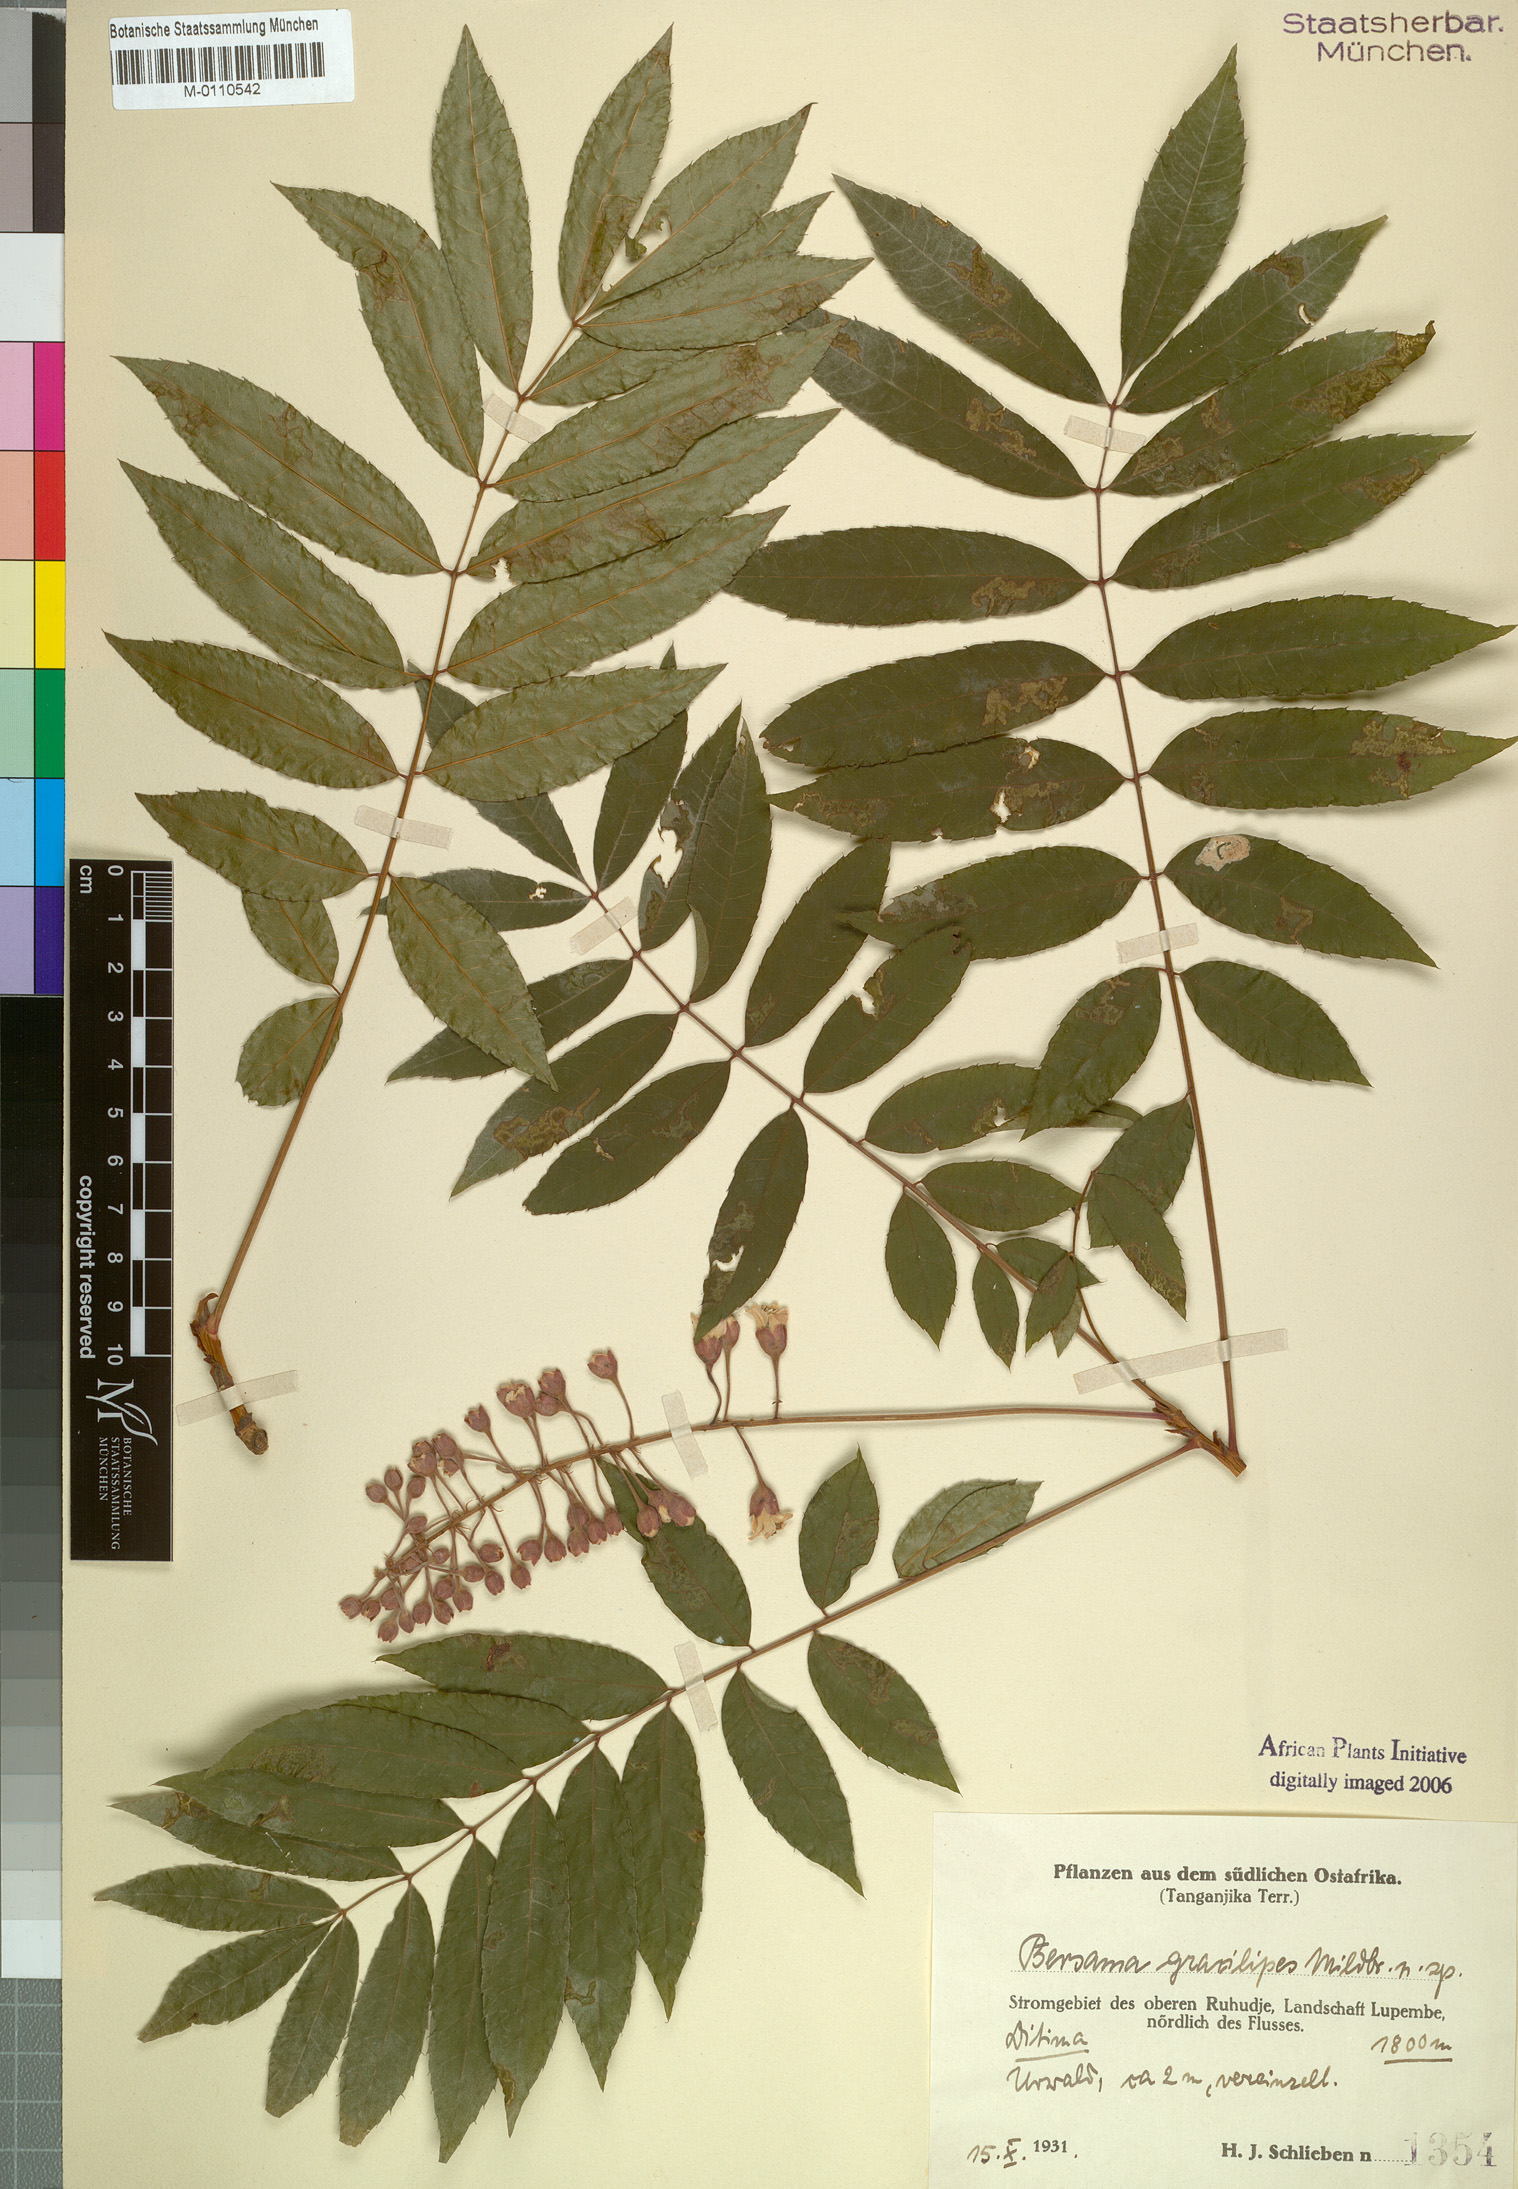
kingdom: Plantae
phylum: Tracheophyta
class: Magnoliopsida
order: Geraniales
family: Melianthaceae
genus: Bersama
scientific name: Bersama abyssinica
